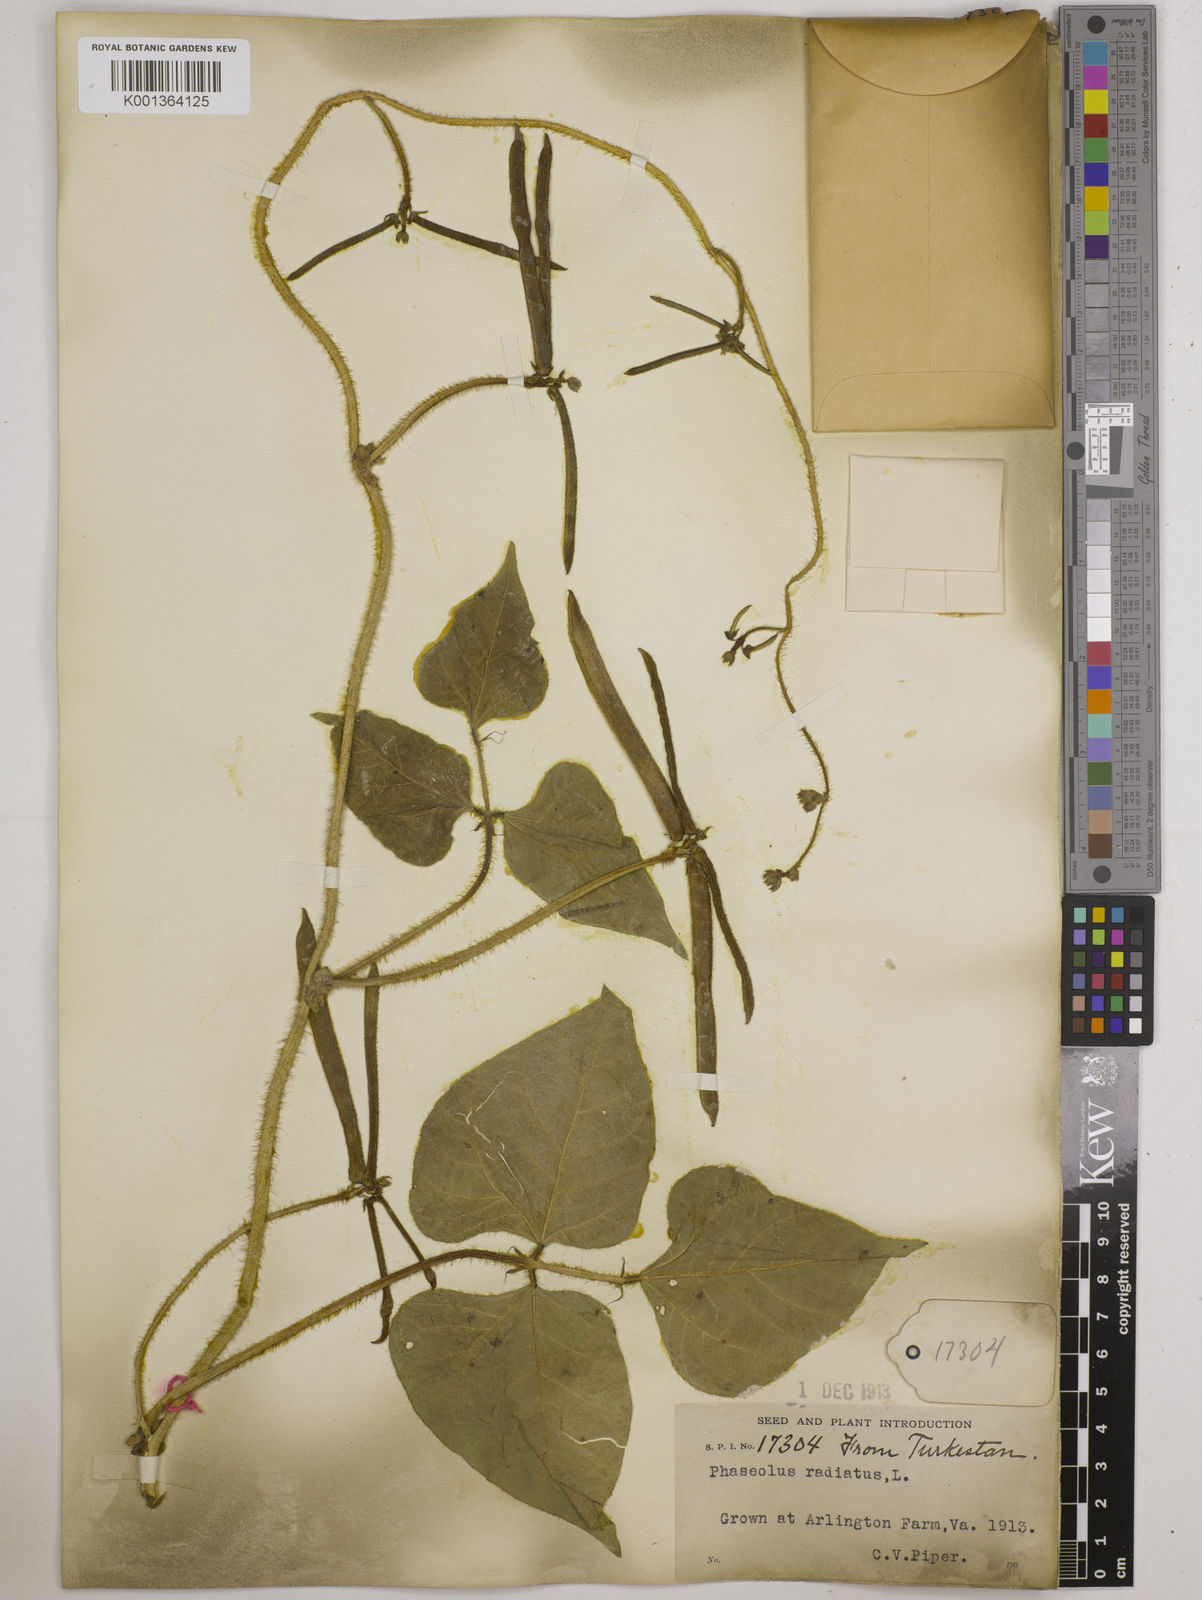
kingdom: Plantae
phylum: Tracheophyta
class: Magnoliopsida
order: Fabales
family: Fabaceae
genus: Vigna
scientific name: Vigna radiata
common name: Mung-bean
